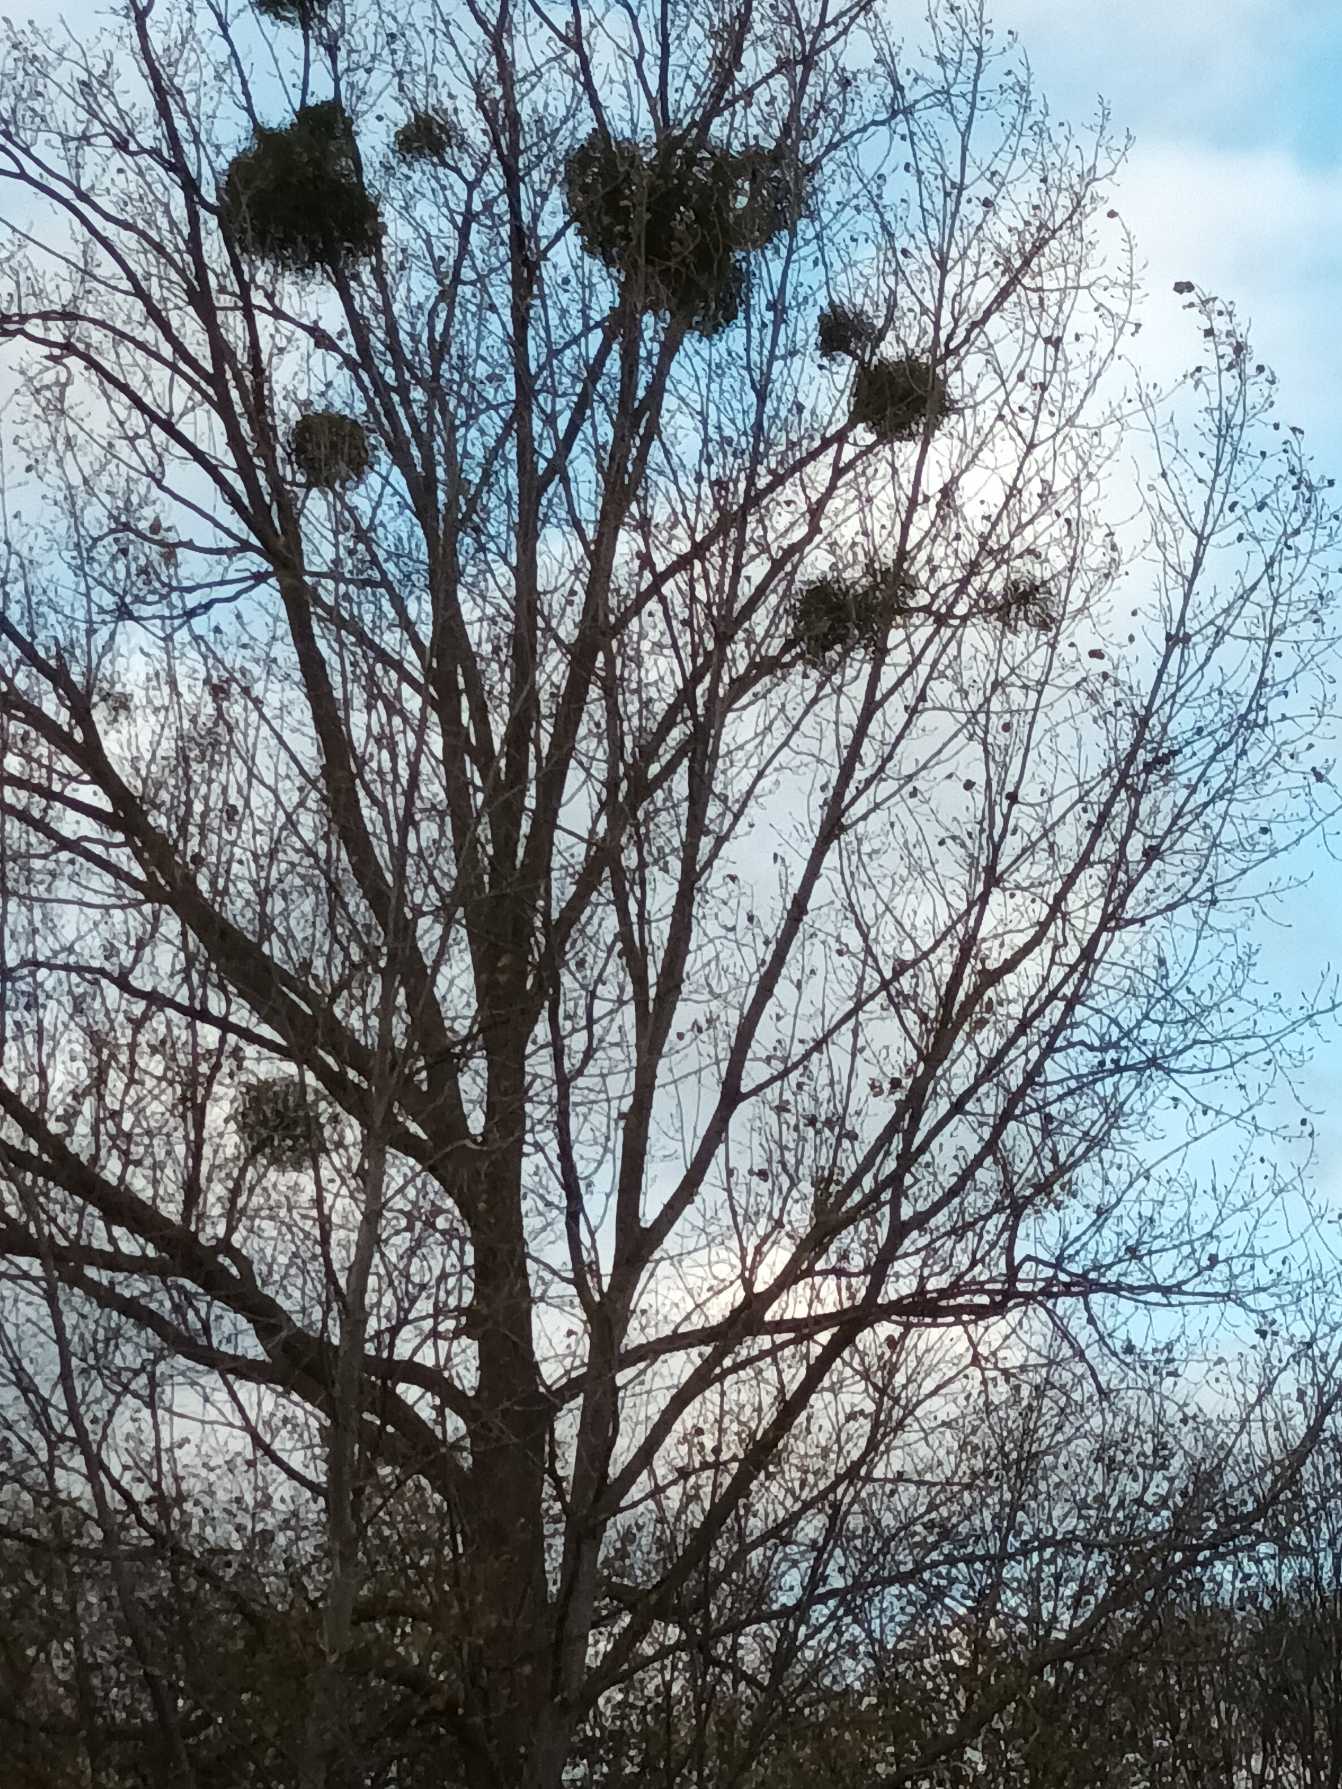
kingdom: Plantae
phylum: Tracheophyta
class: Magnoliopsida
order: Santalales
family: Viscaceae
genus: Viscum
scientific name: Viscum album
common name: Mistelten
